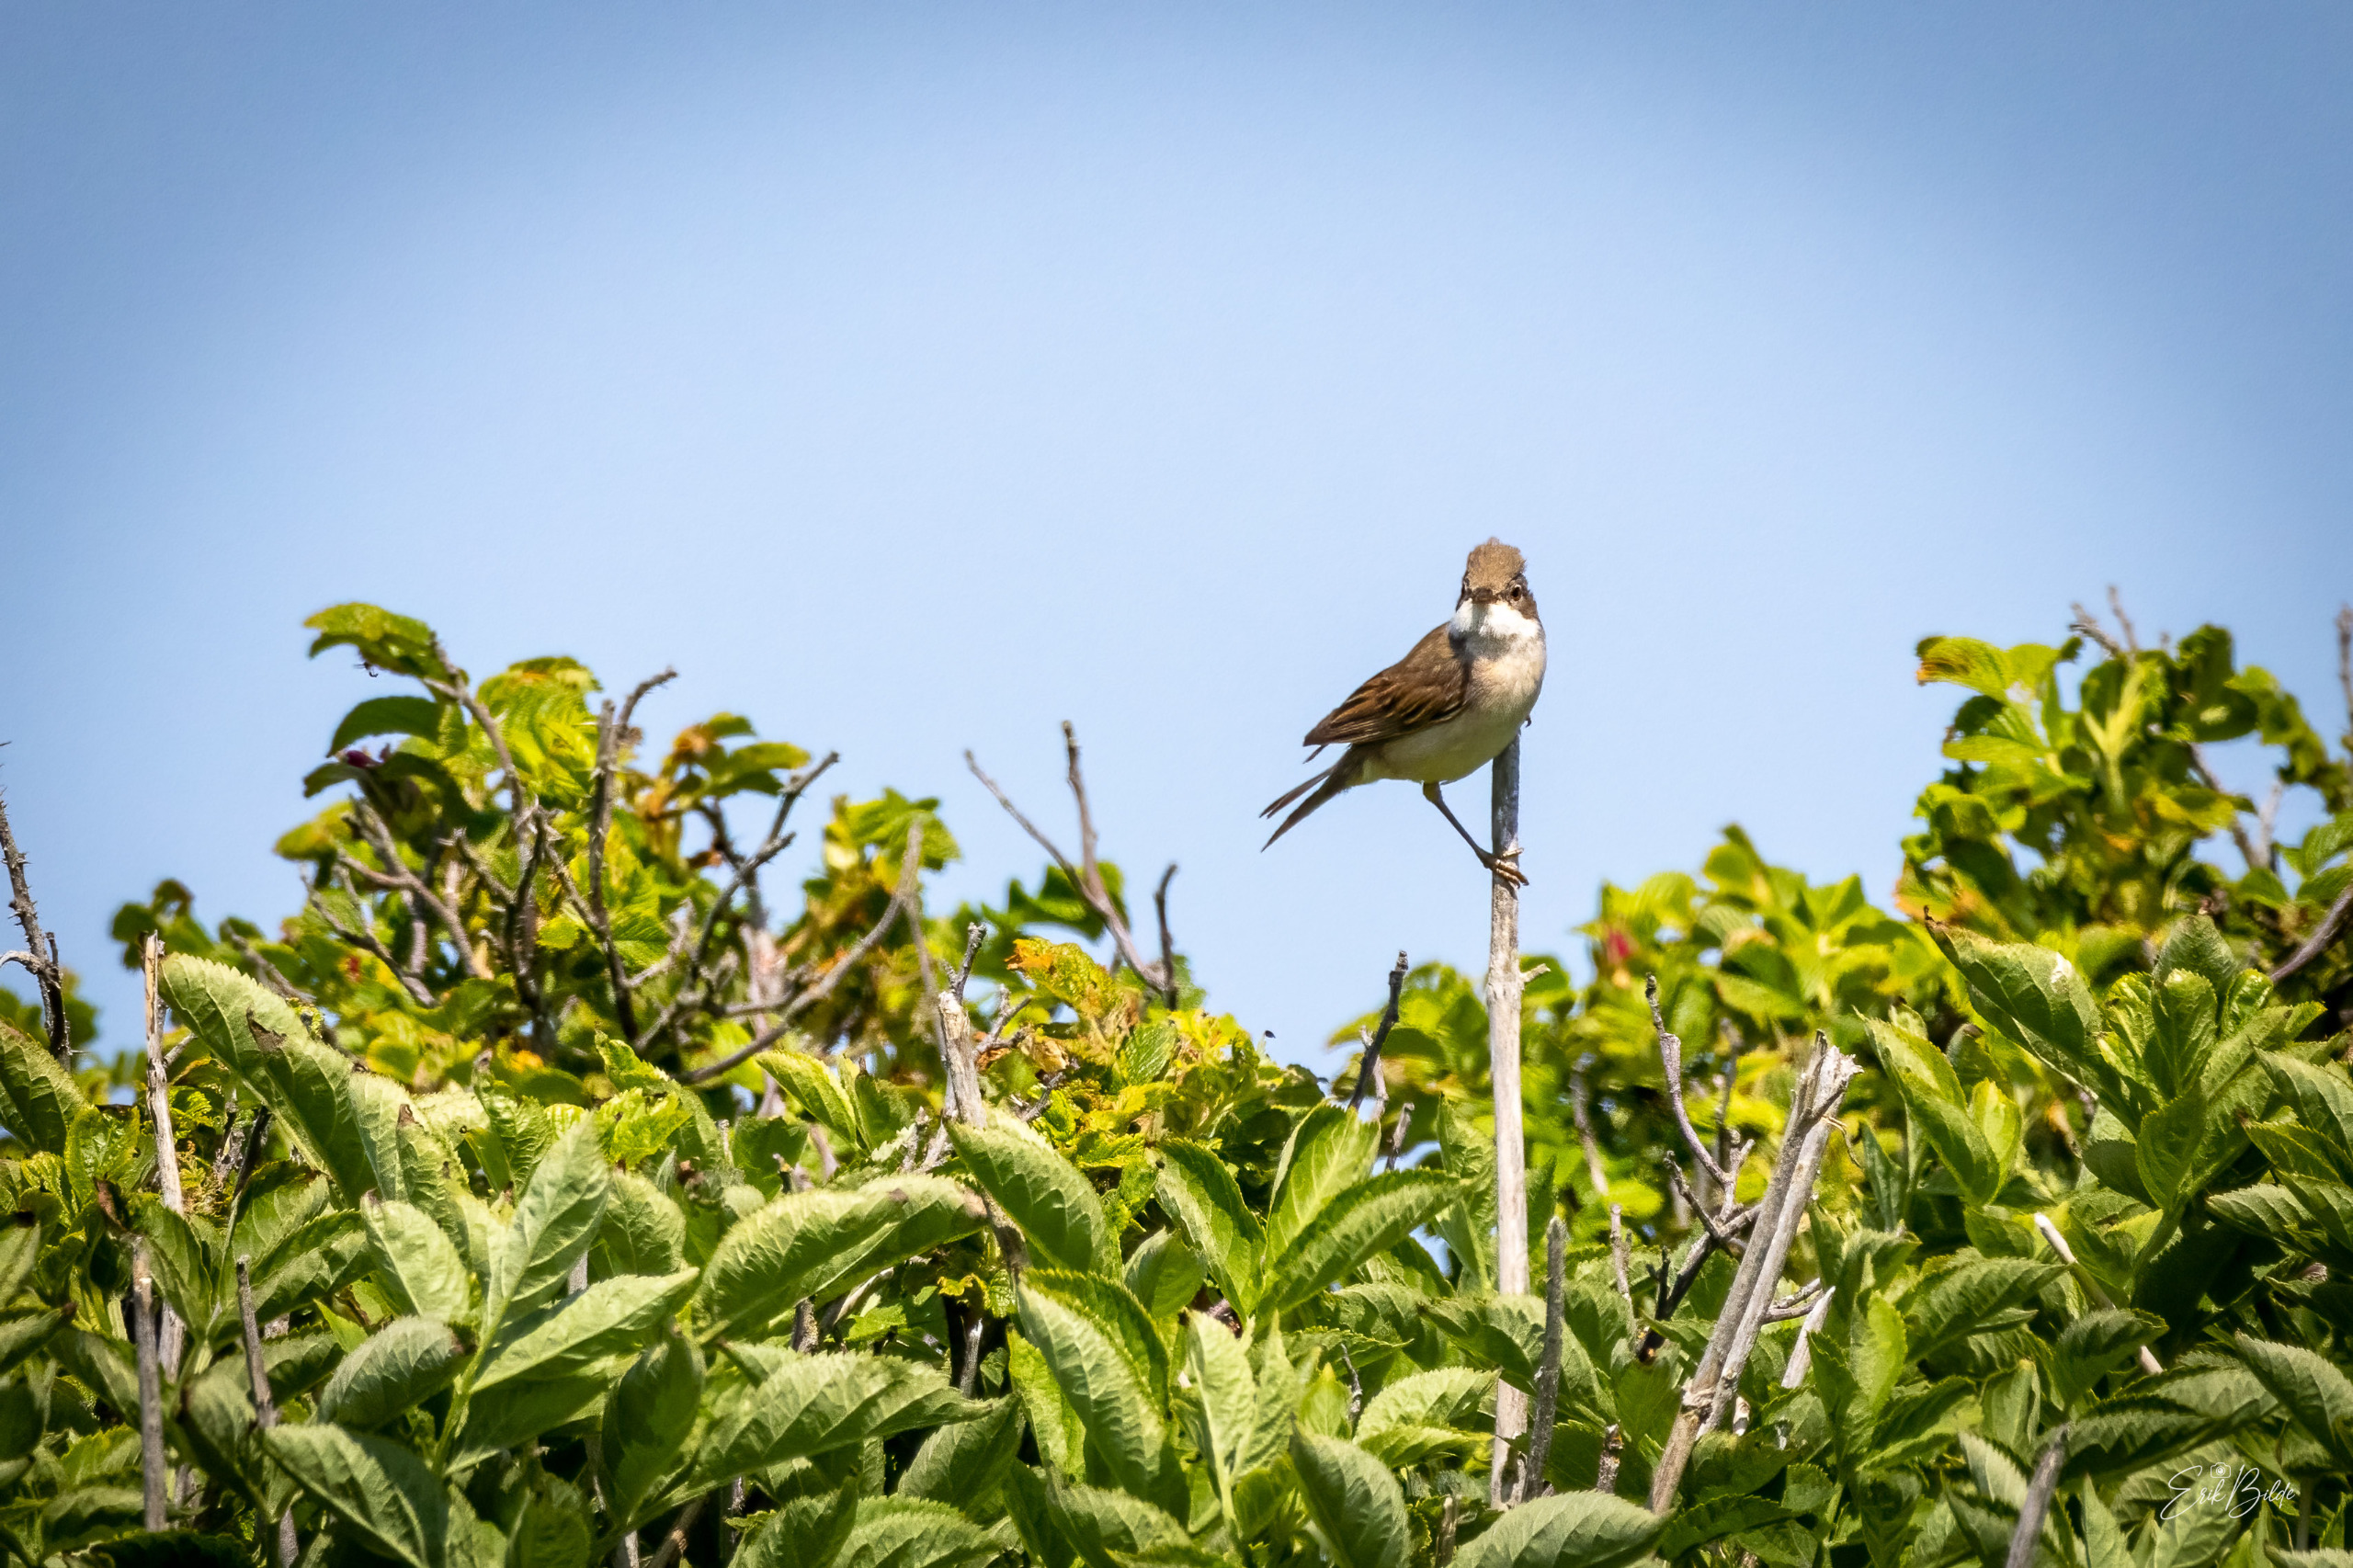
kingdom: Animalia
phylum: Chordata
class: Aves
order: Passeriformes
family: Sylviidae
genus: Sylvia
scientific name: Sylvia communis
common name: Tornsanger
